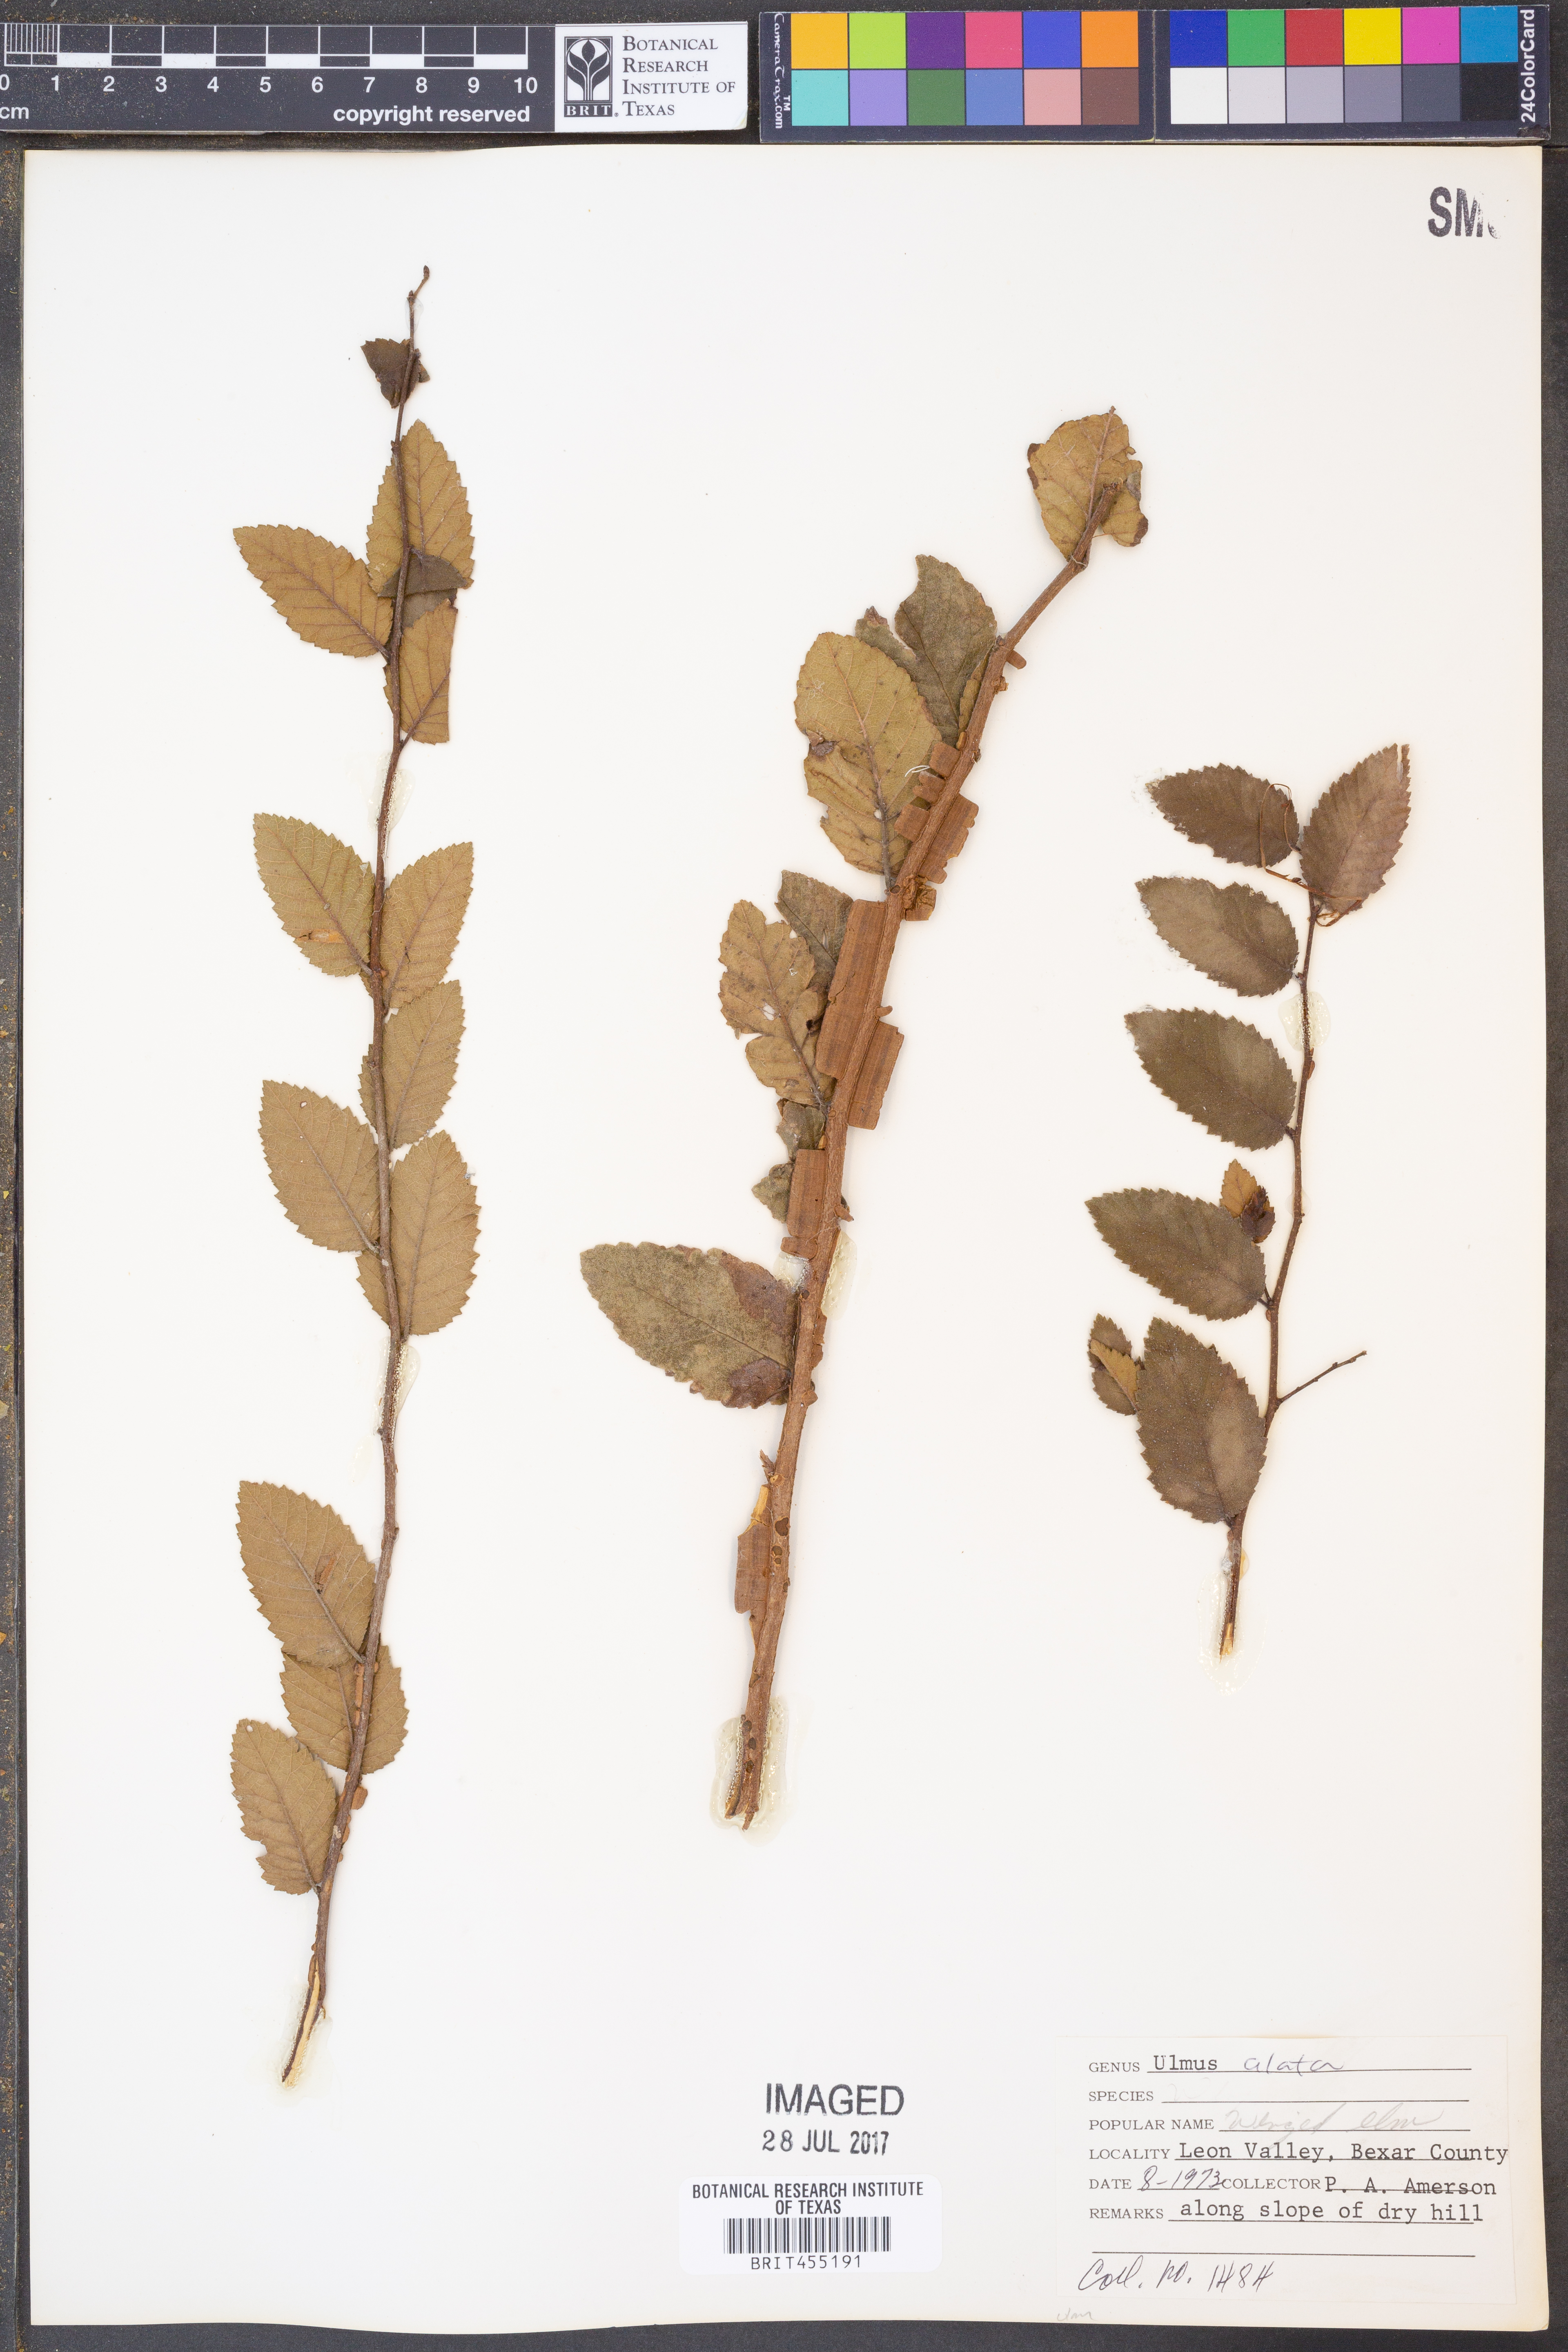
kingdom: Plantae
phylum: Tracheophyta
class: Magnoliopsida
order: Rosales
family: Ulmaceae
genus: Ulmus
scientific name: Ulmus alata
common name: Winged elm
